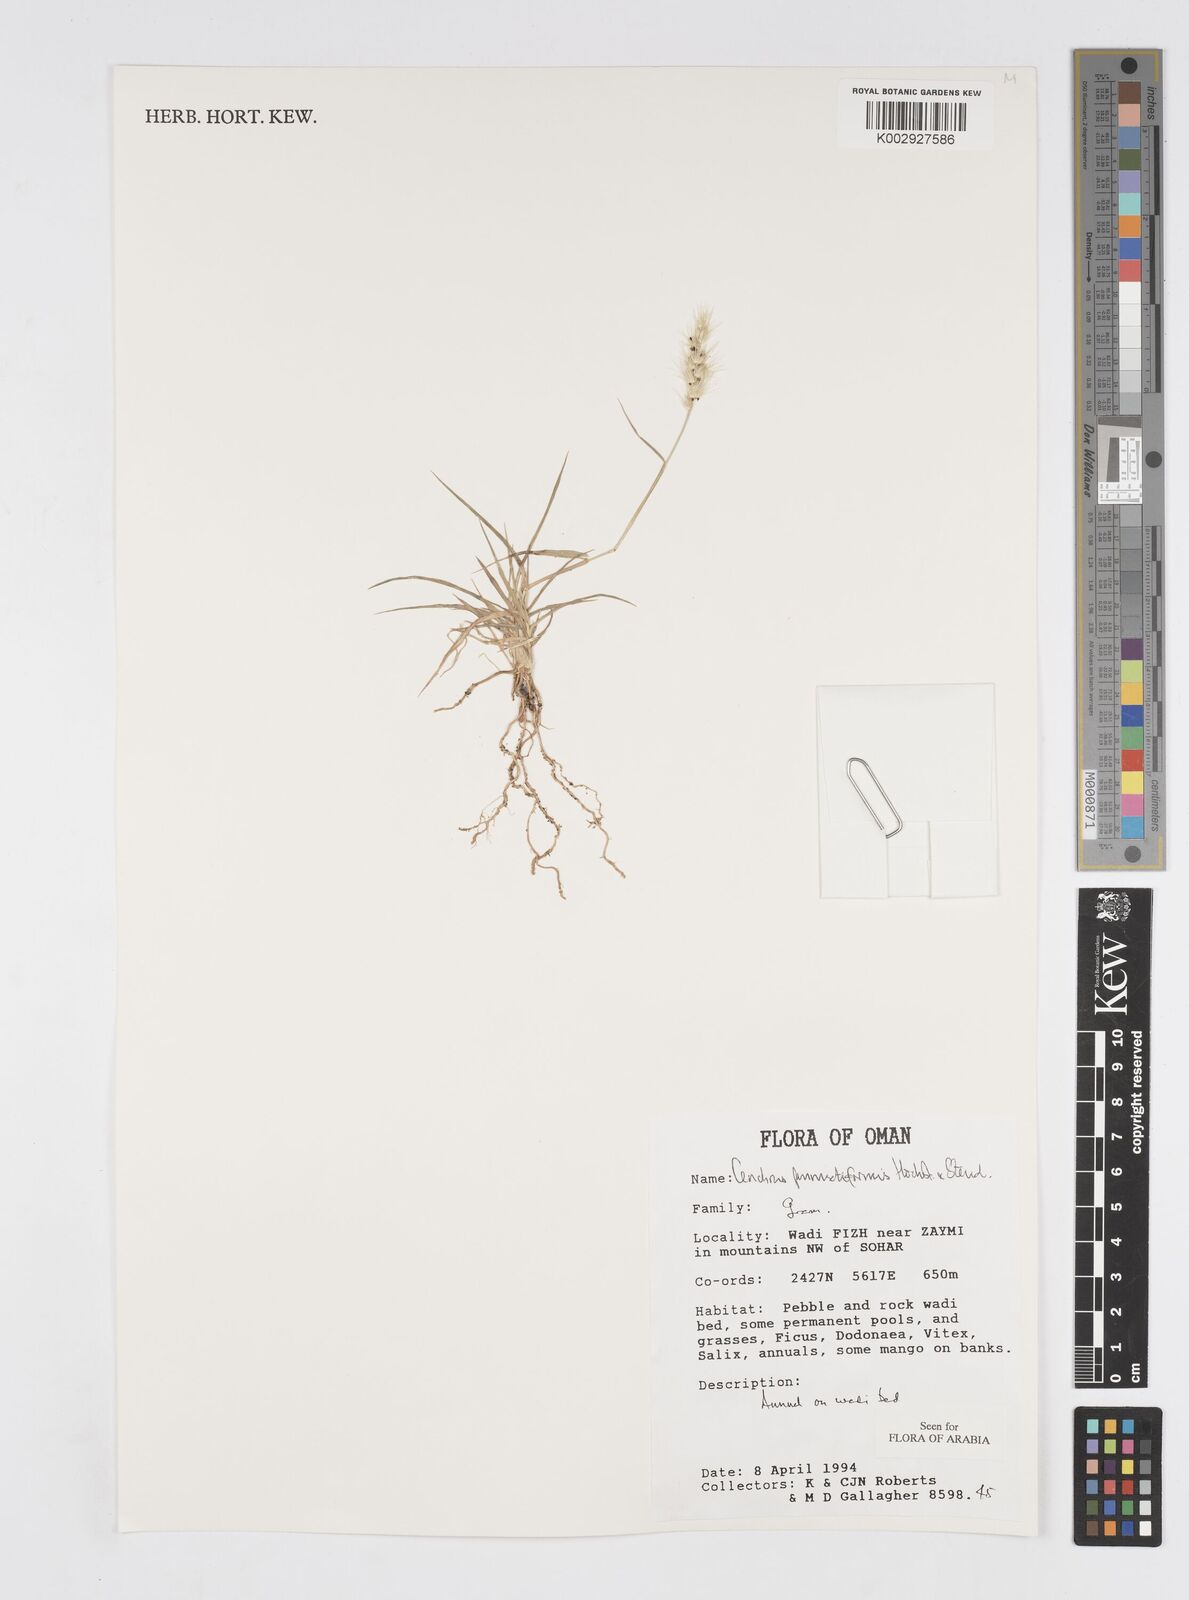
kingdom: Plantae
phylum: Tracheophyta
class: Liliopsida
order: Poales
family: Poaceae
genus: Cenchrus
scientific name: Cenchrus pennisetiformis
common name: Cloncurry
